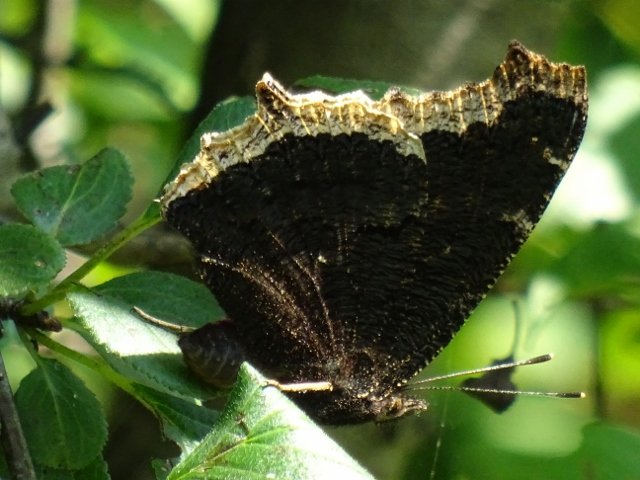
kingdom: Animalia
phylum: Arthropoda
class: Insecta
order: Lepidoptera
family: Nymphalidae
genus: Nymphalis
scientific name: Nymphalis antiopa
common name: Mourning Cloak
